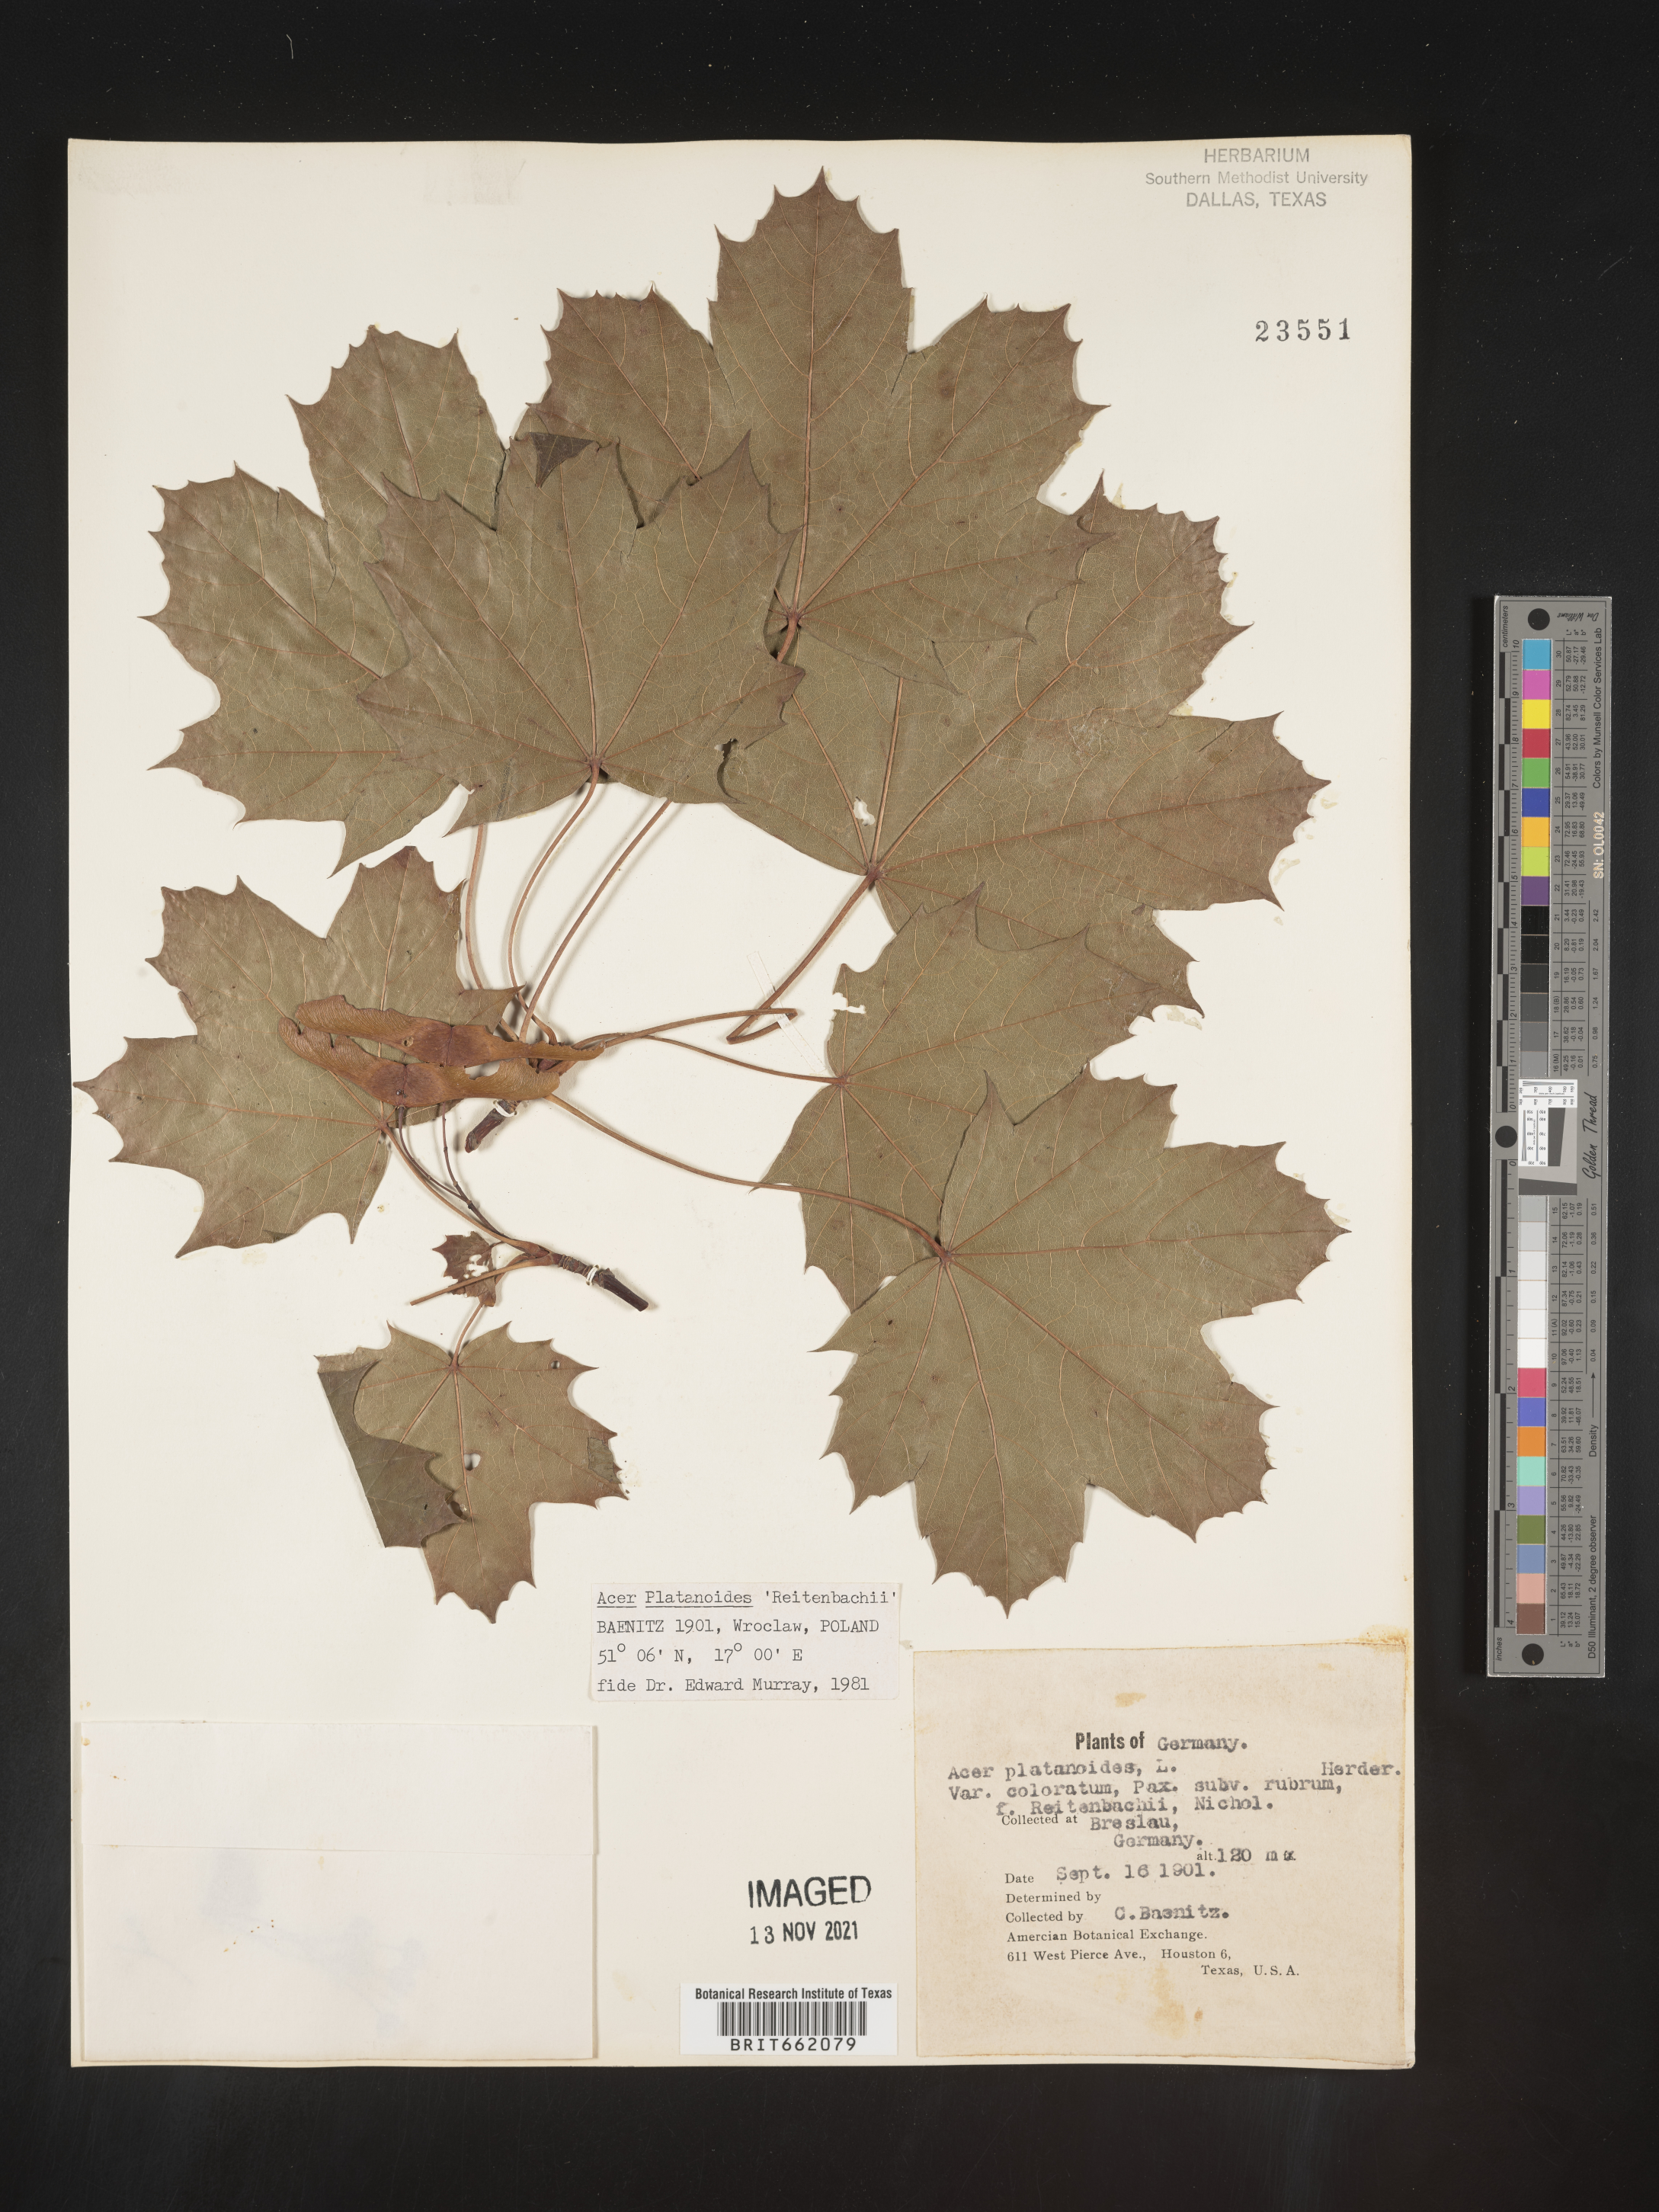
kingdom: Plantae
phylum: Tracheophyta
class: Magnoliopsida
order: Sapindales
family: Sapindaceae
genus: Acer
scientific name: Acer
